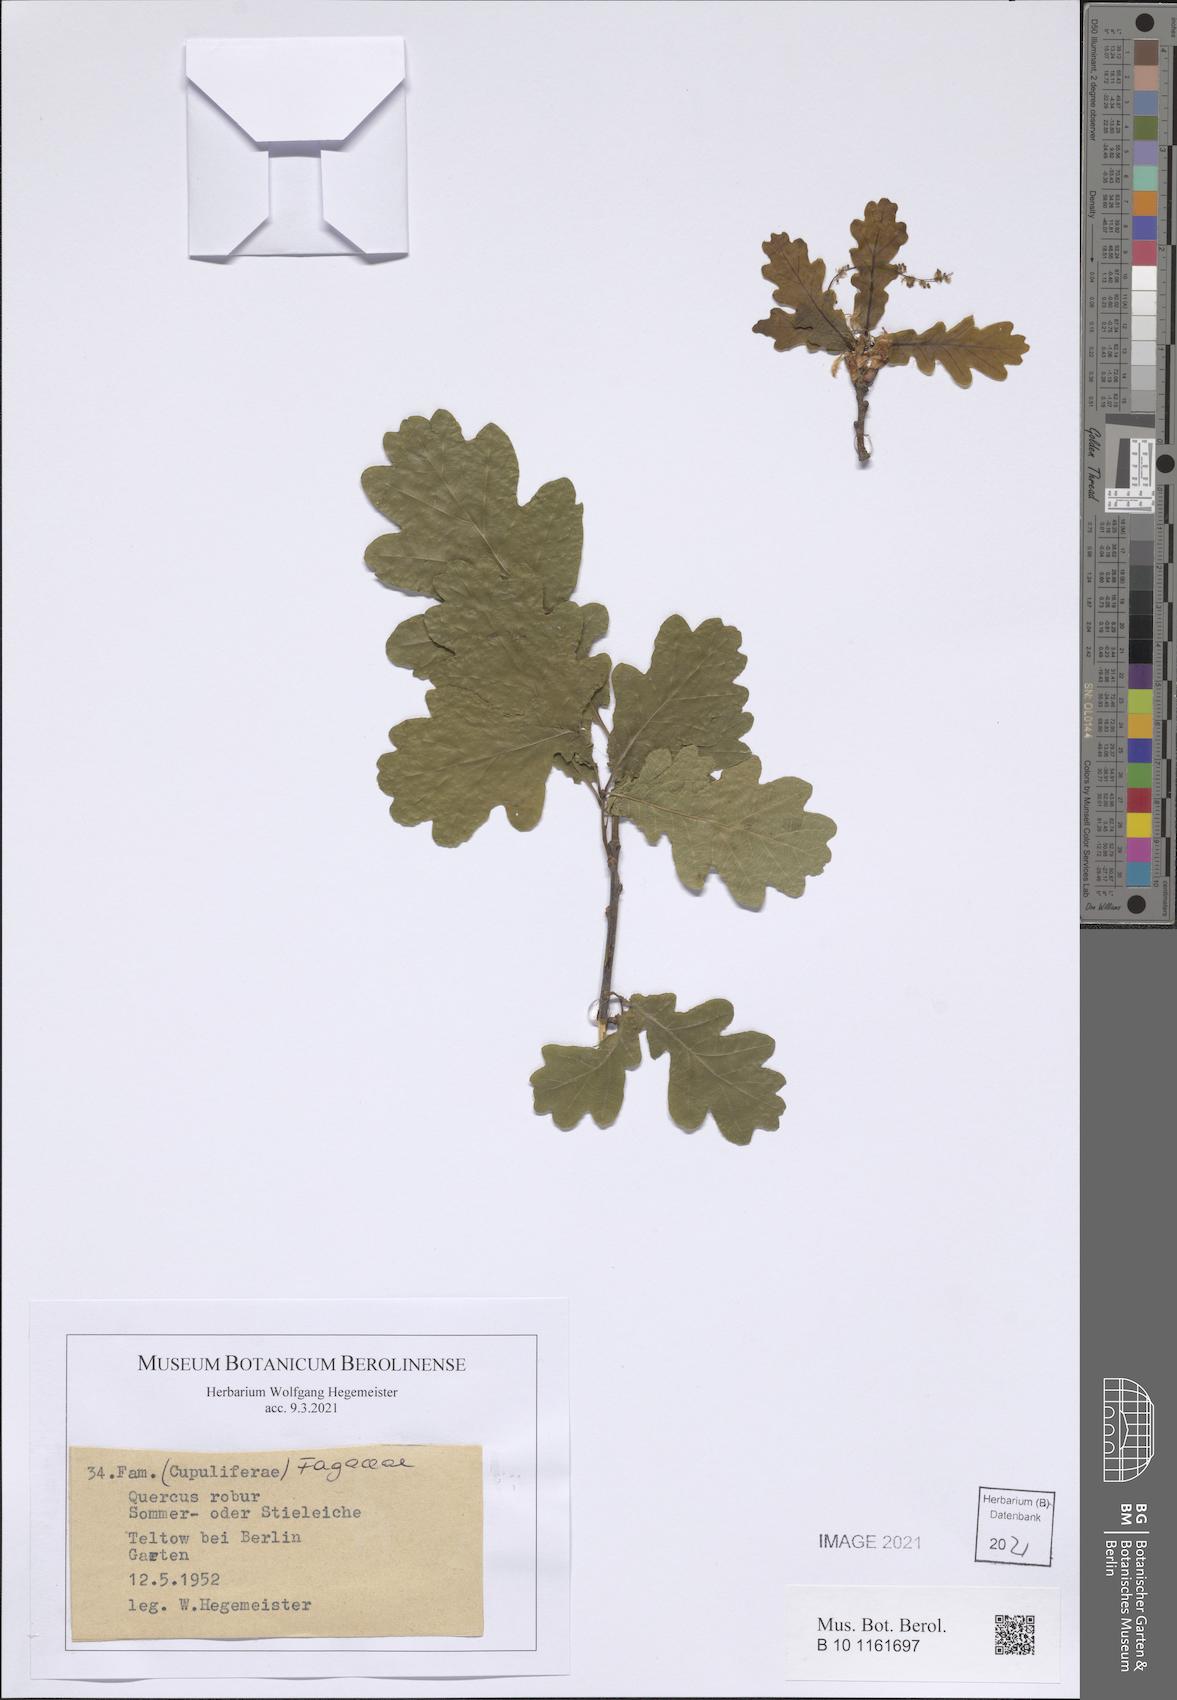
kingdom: Plantae
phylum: Tracheophyta
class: Magnoliopsida
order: Fagales
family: Fagaceae
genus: Quercus
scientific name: Quercus robur
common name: Pedunculate oak
